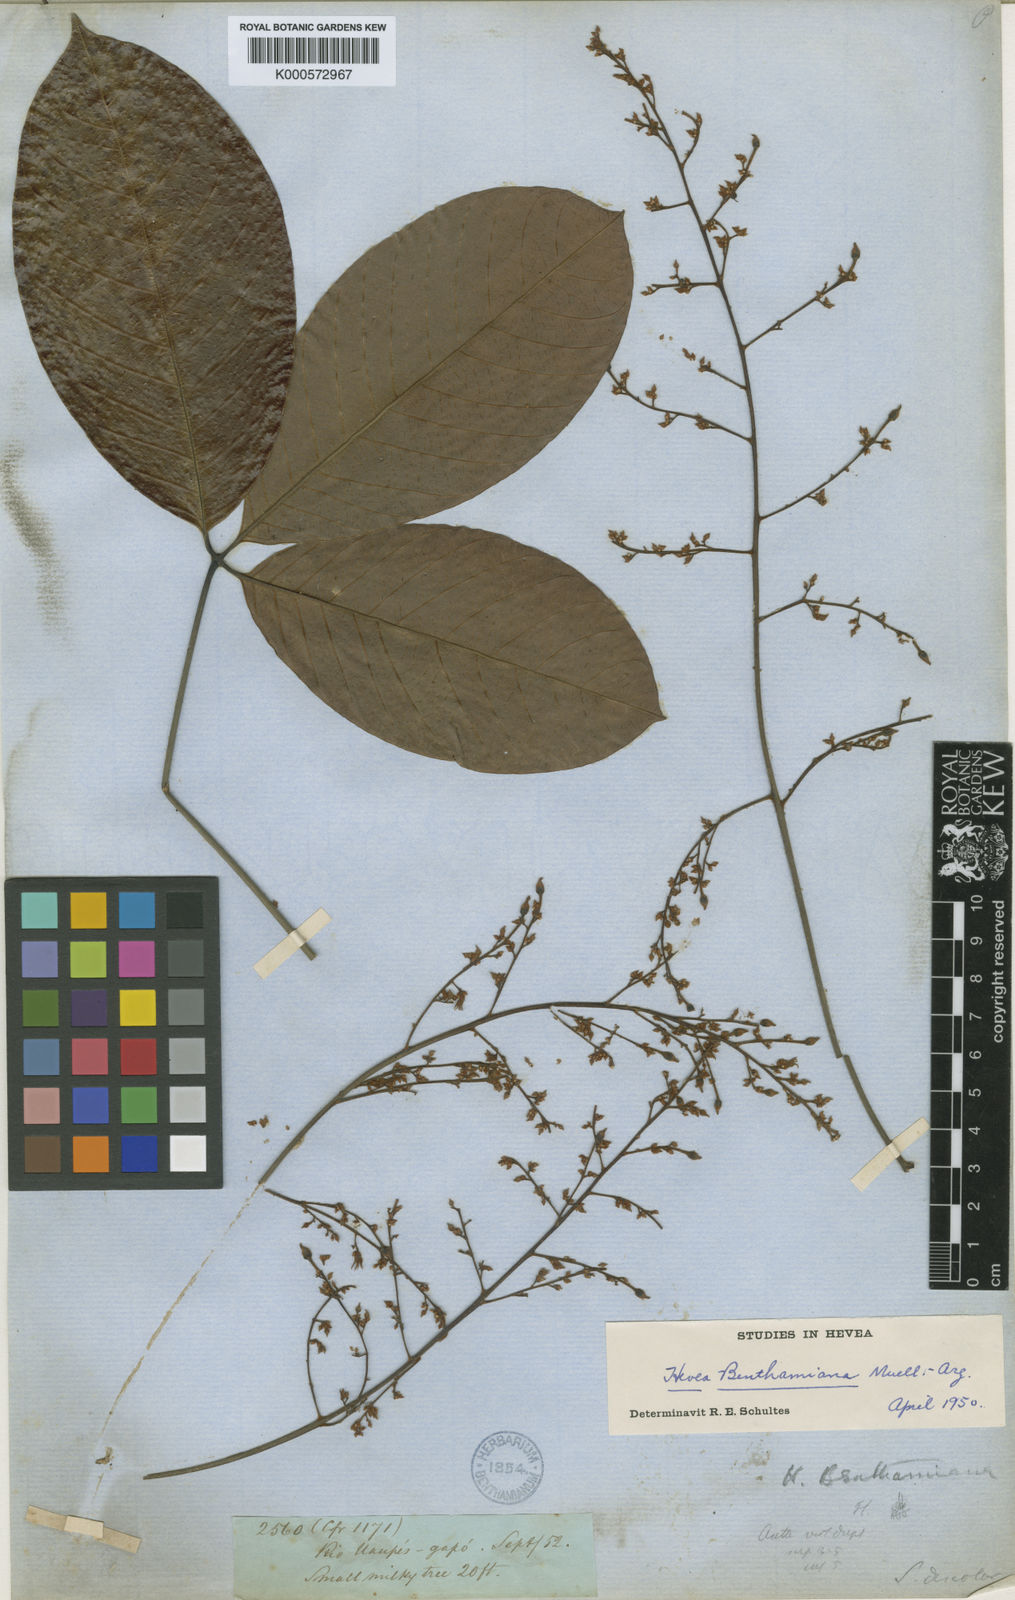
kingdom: Plantae
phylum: Tracheophyta
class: Magnoliopsida
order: Malpighiales
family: Euphorbiaceae
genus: Hevea
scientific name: Hevea
